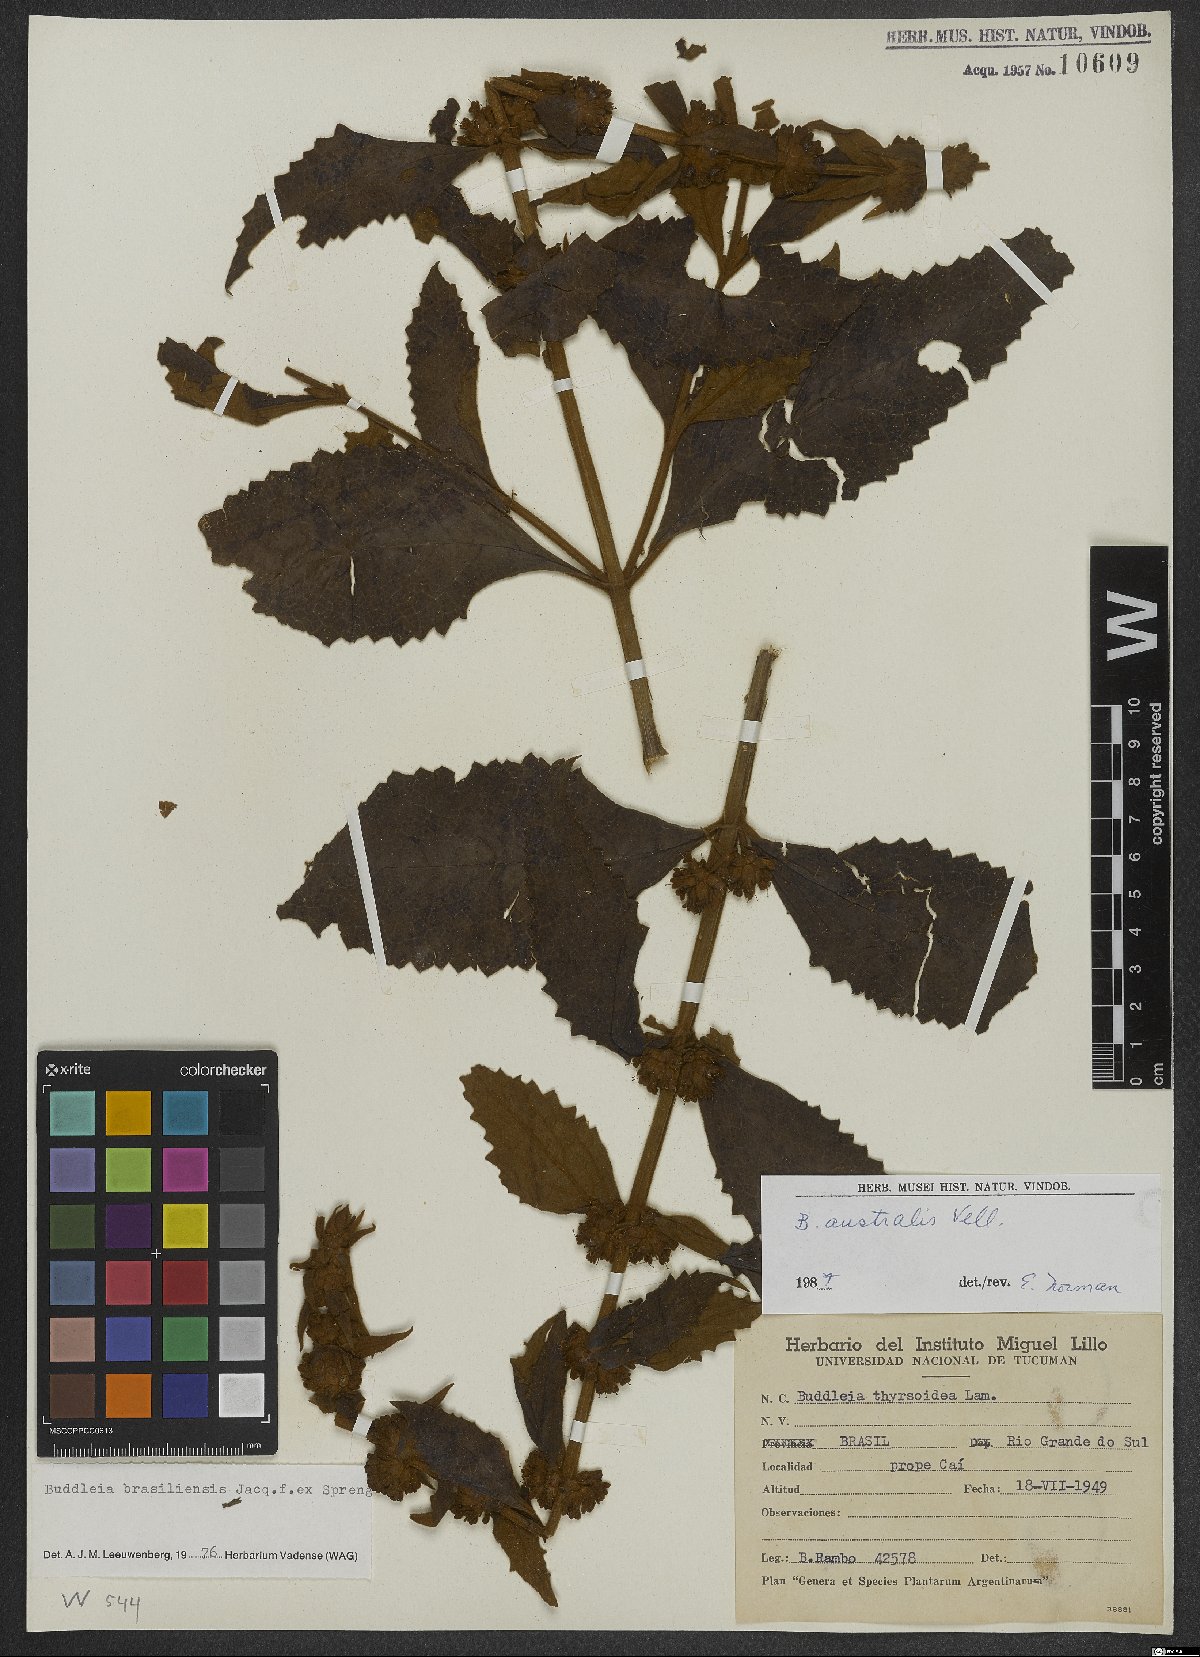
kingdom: Plantae
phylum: Tracheophyta
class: Magnoliopsida
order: Lamiales
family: Scrophulariaceae
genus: Buddleja
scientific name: Buddleja stachyoides
